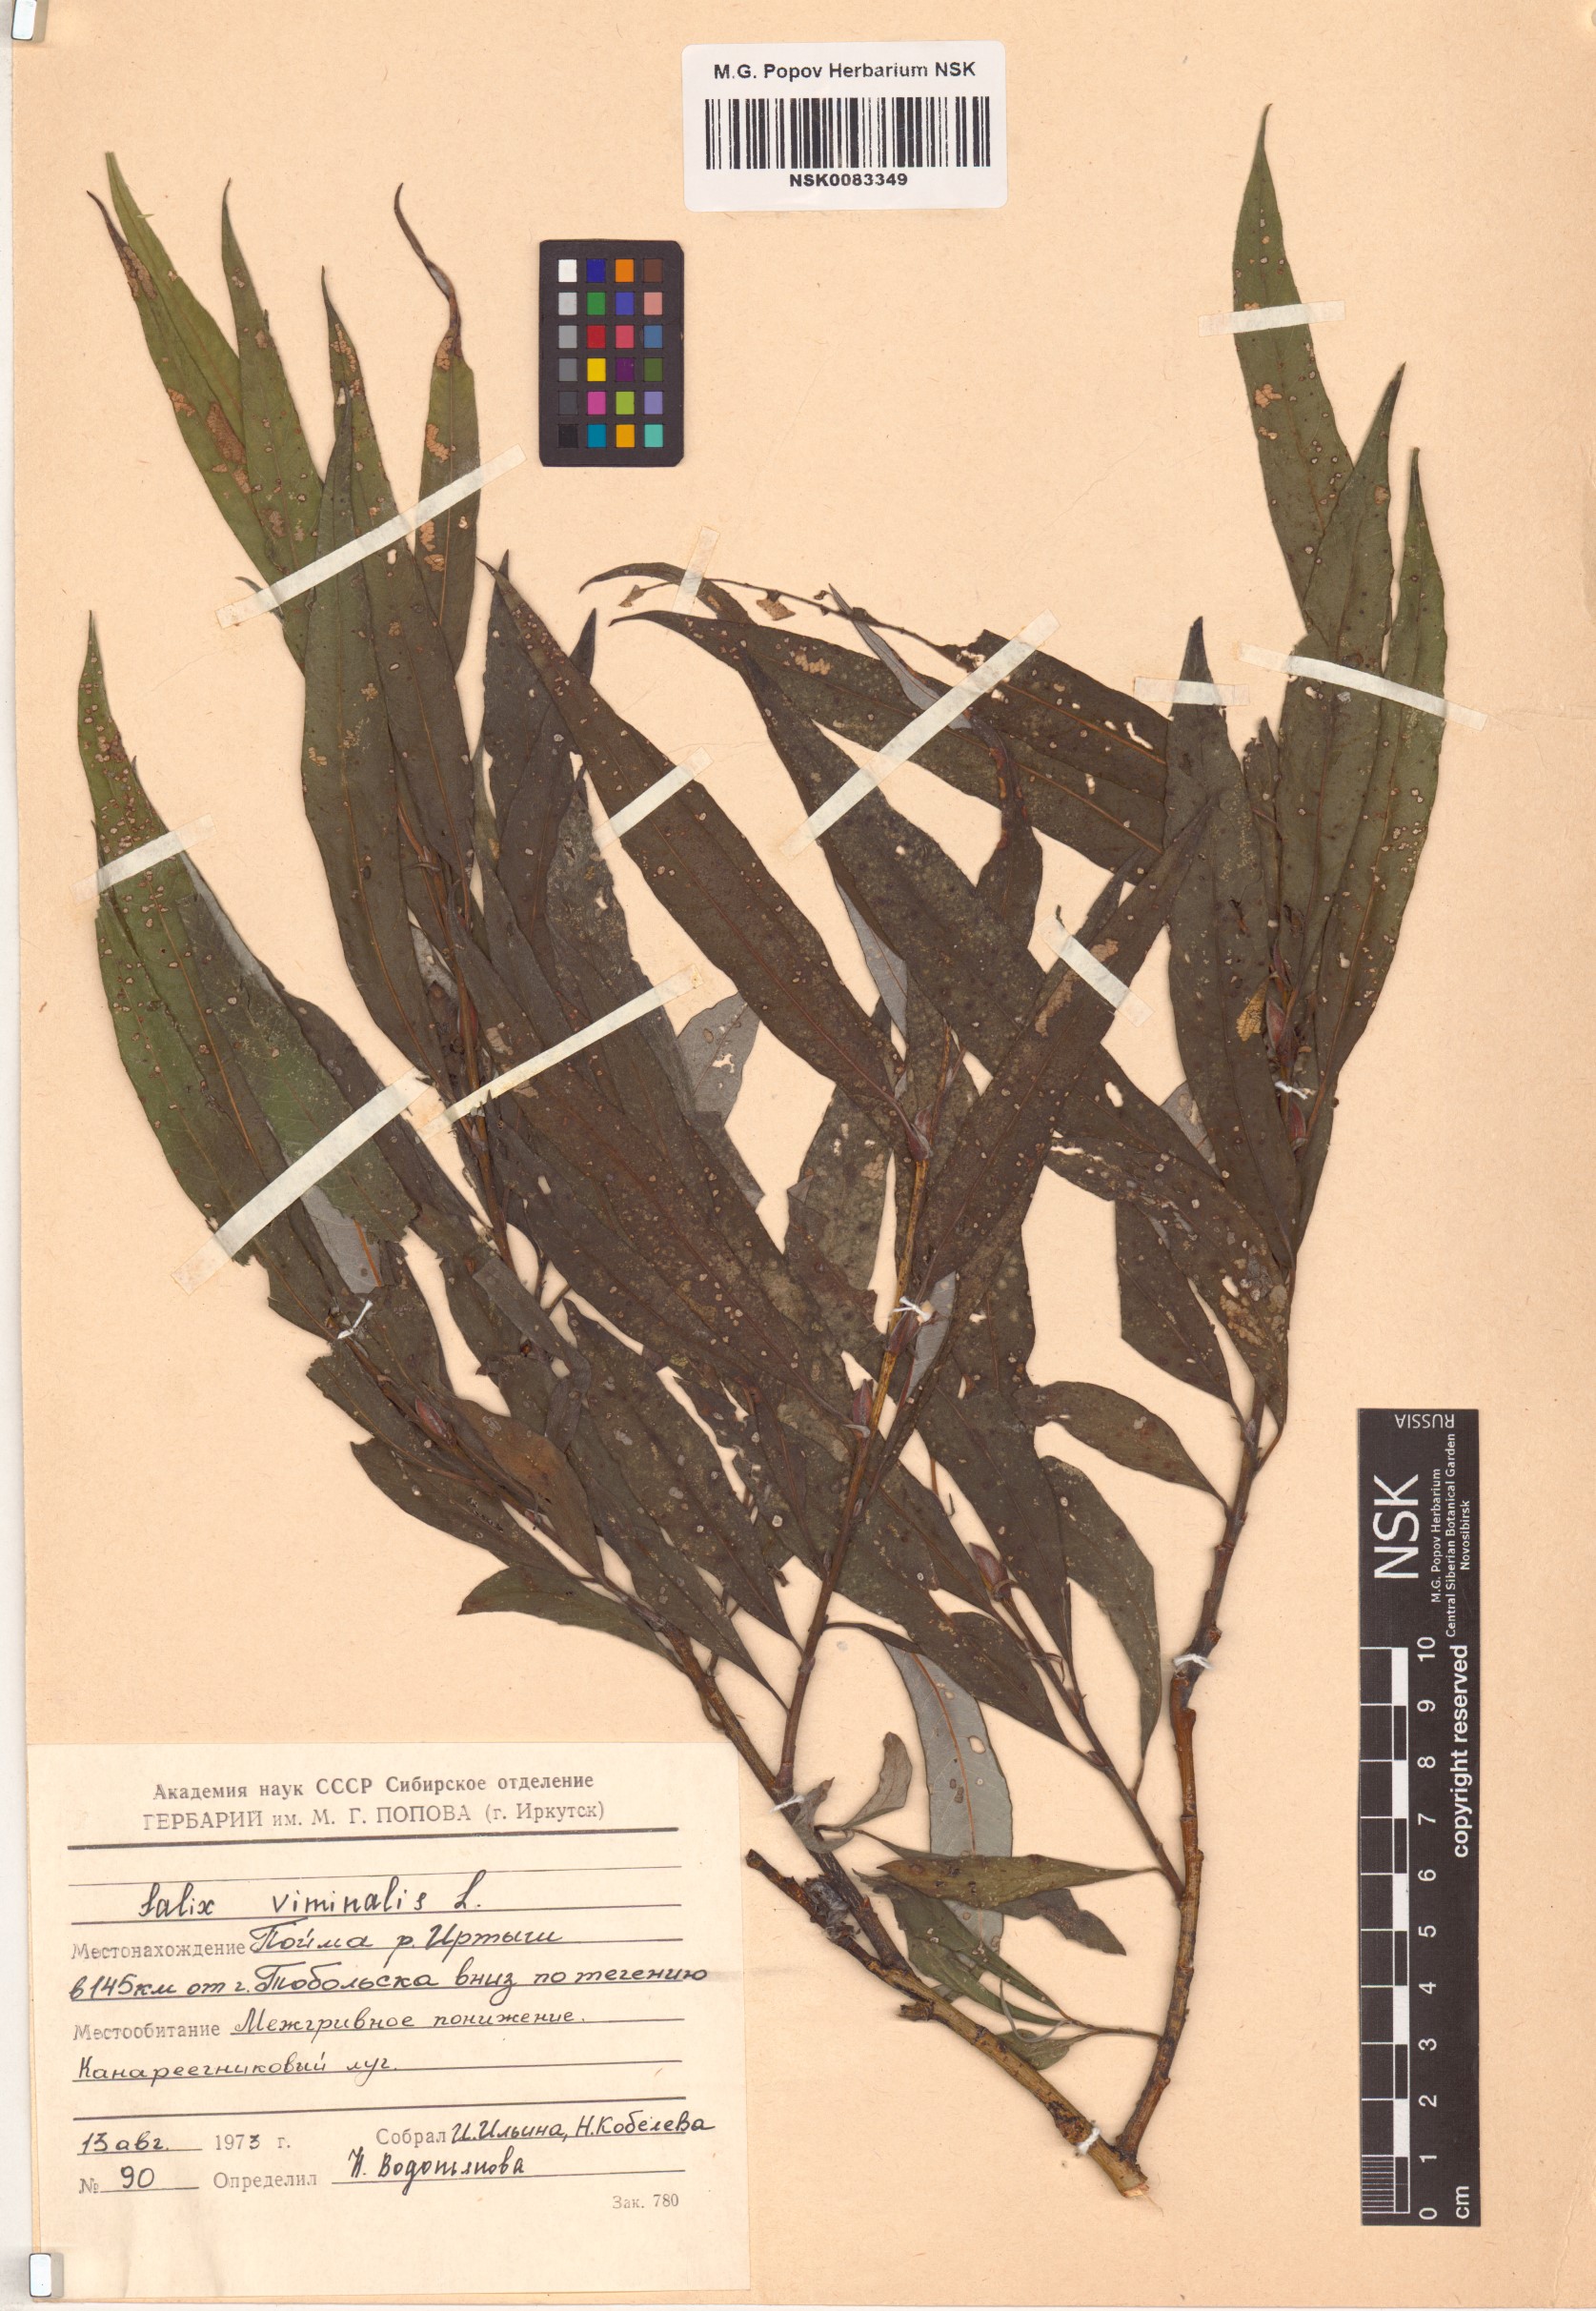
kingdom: Plantae
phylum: Tracheophyta
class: Magnoliopsida
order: Malpighiales
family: Salicaceae
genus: Salix
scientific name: Salix viminalis
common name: Osier
